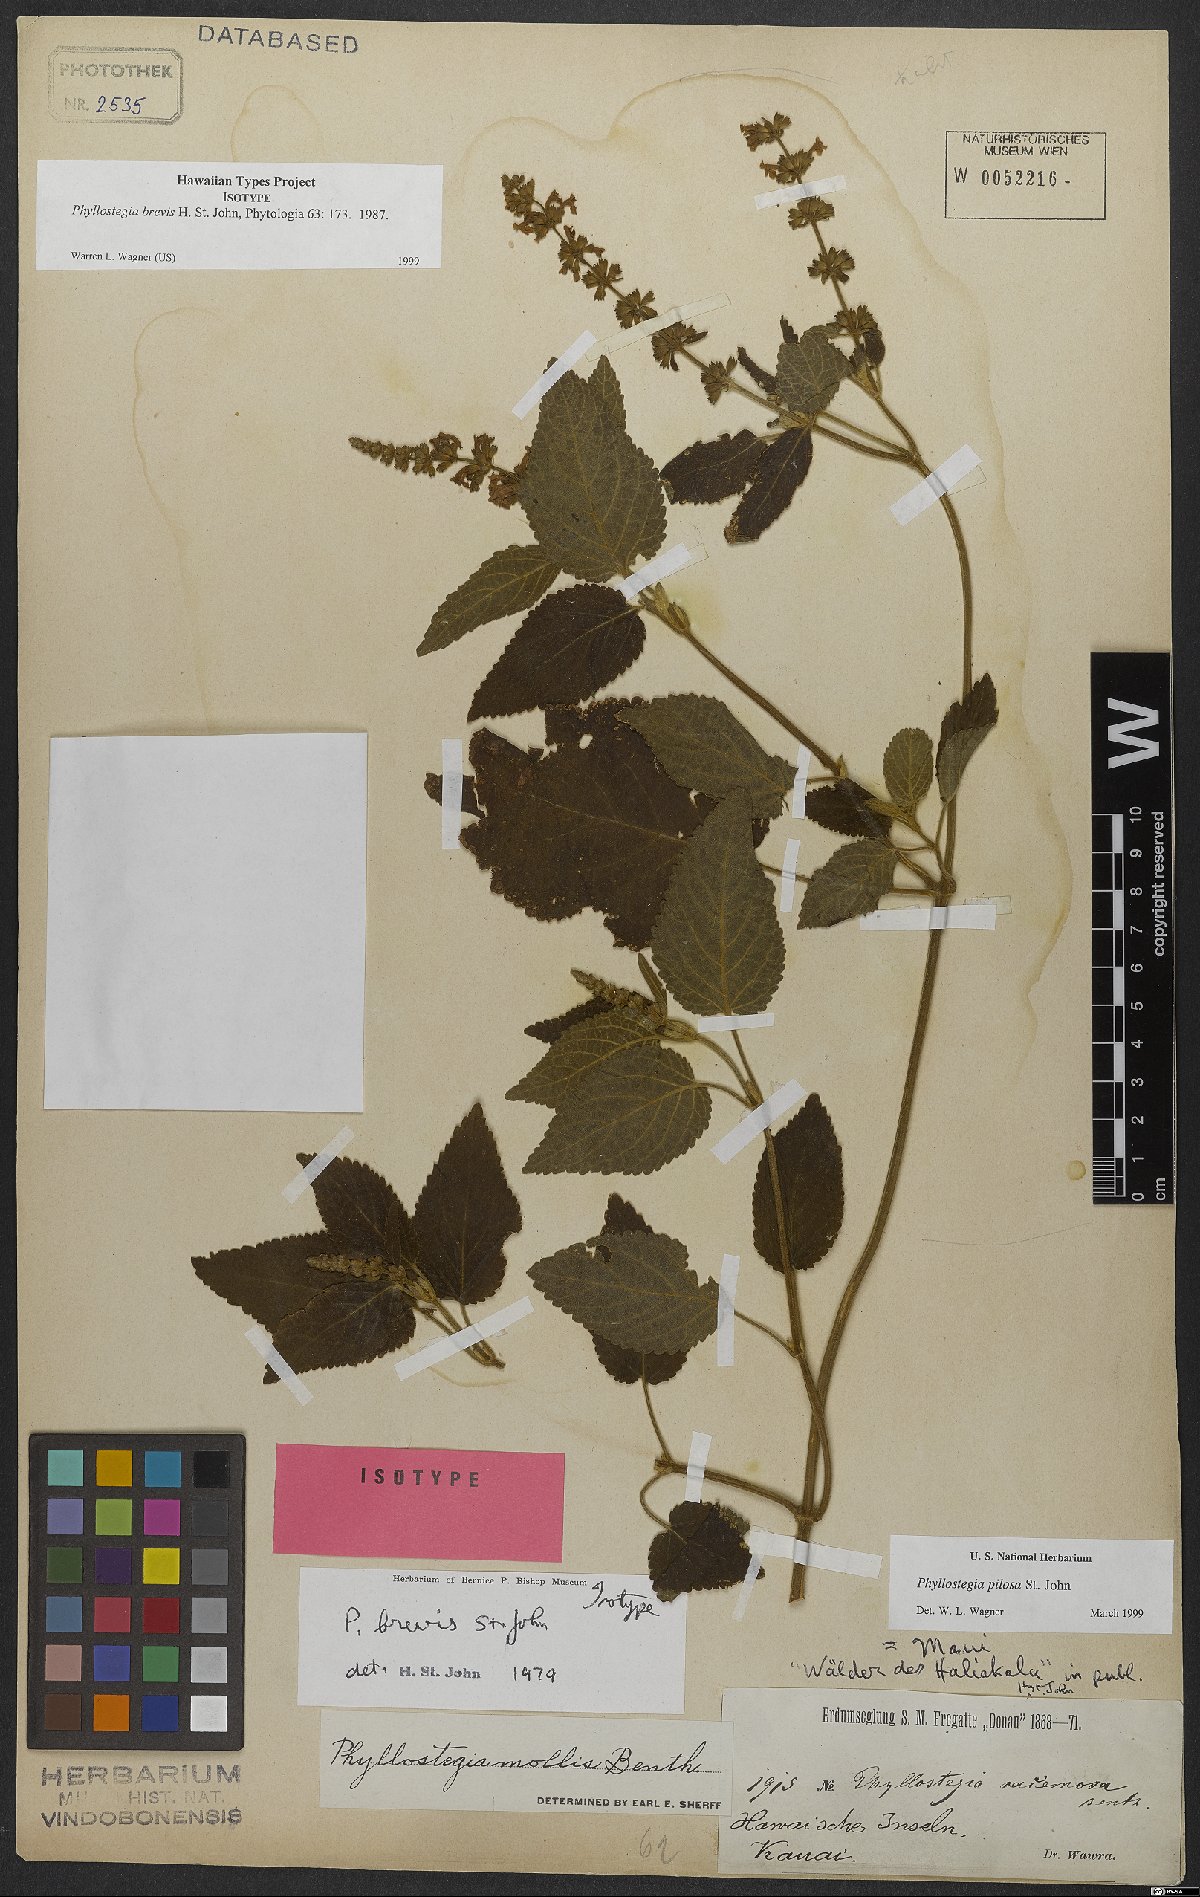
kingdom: Plantae
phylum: Tracheophyta
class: Magnoliopsida
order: Lamiales
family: Lamiaceae
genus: Phyllostegia
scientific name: Phyllostegia pilosa
